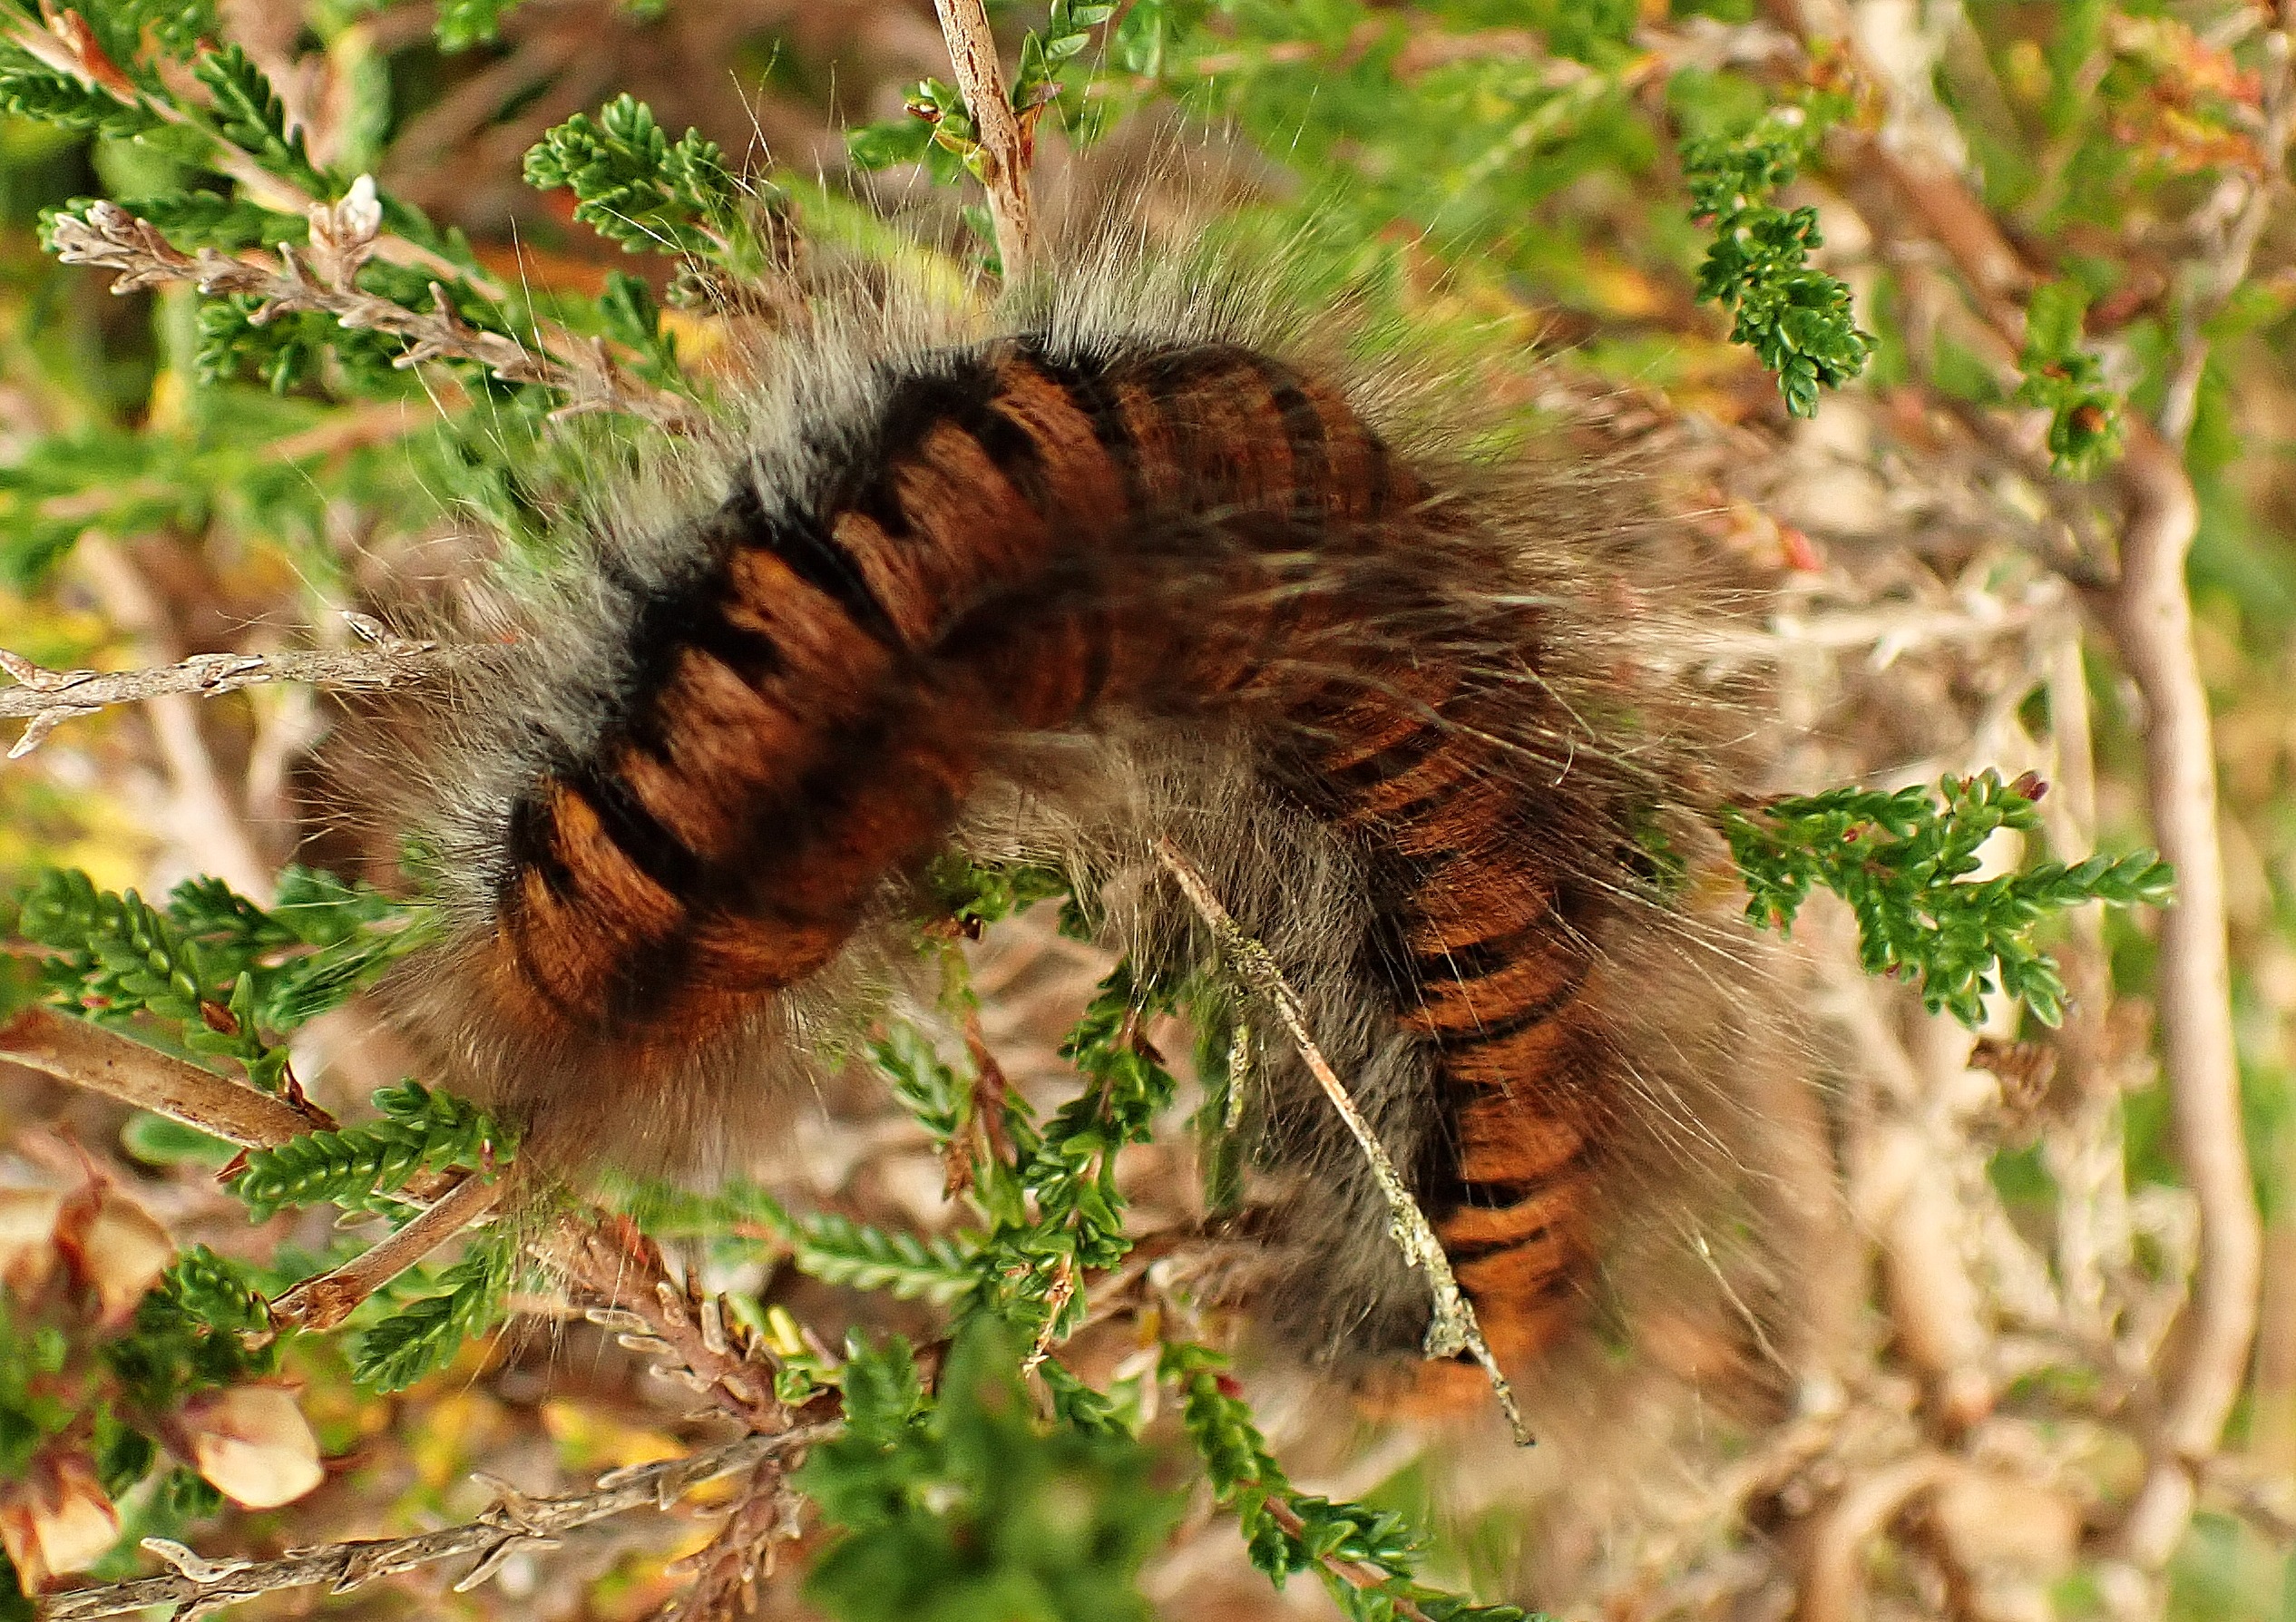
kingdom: Animalia
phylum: Arthropoda
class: Insecta
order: Lepidoptera
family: Lasiocampidae
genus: Macrothylacia
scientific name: Macrothylacia rubi
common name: Brombærspinder
